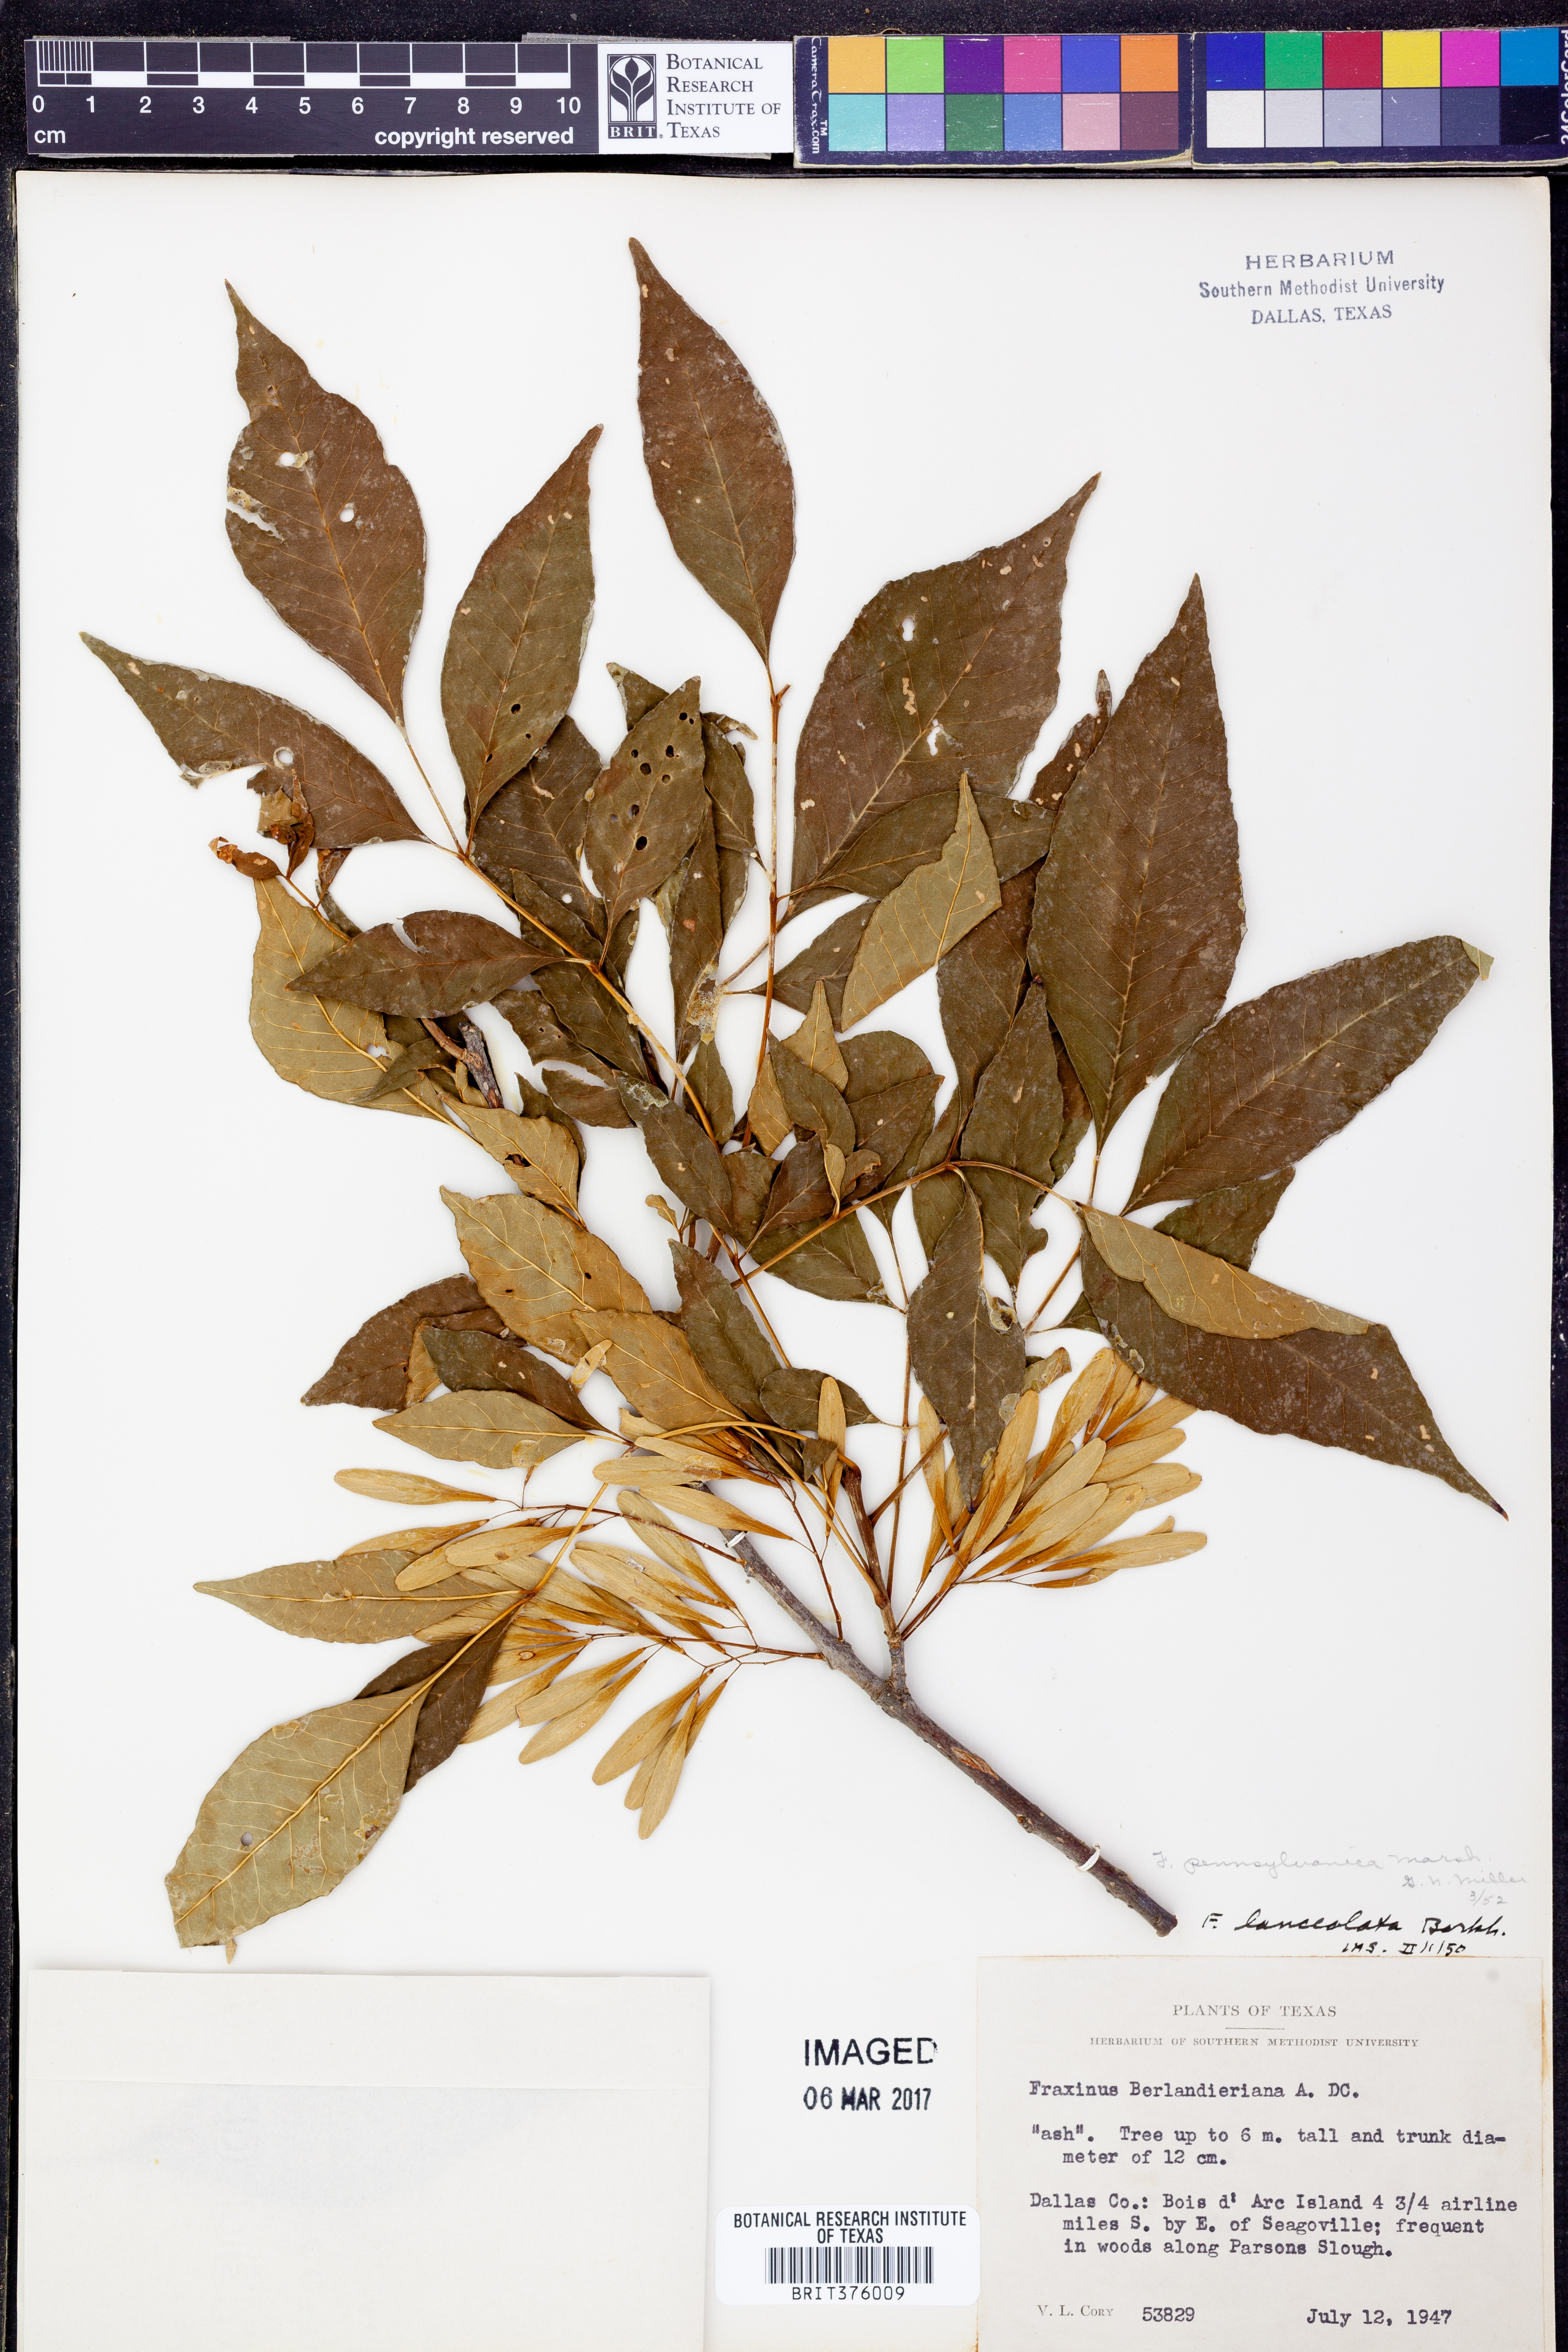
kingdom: Plantae
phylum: Tracheophyta
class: Magnoliopsida
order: Lamiales
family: Oleaceae
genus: Fraxinus
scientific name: Fraxinus pennsylvanica
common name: Green ash
